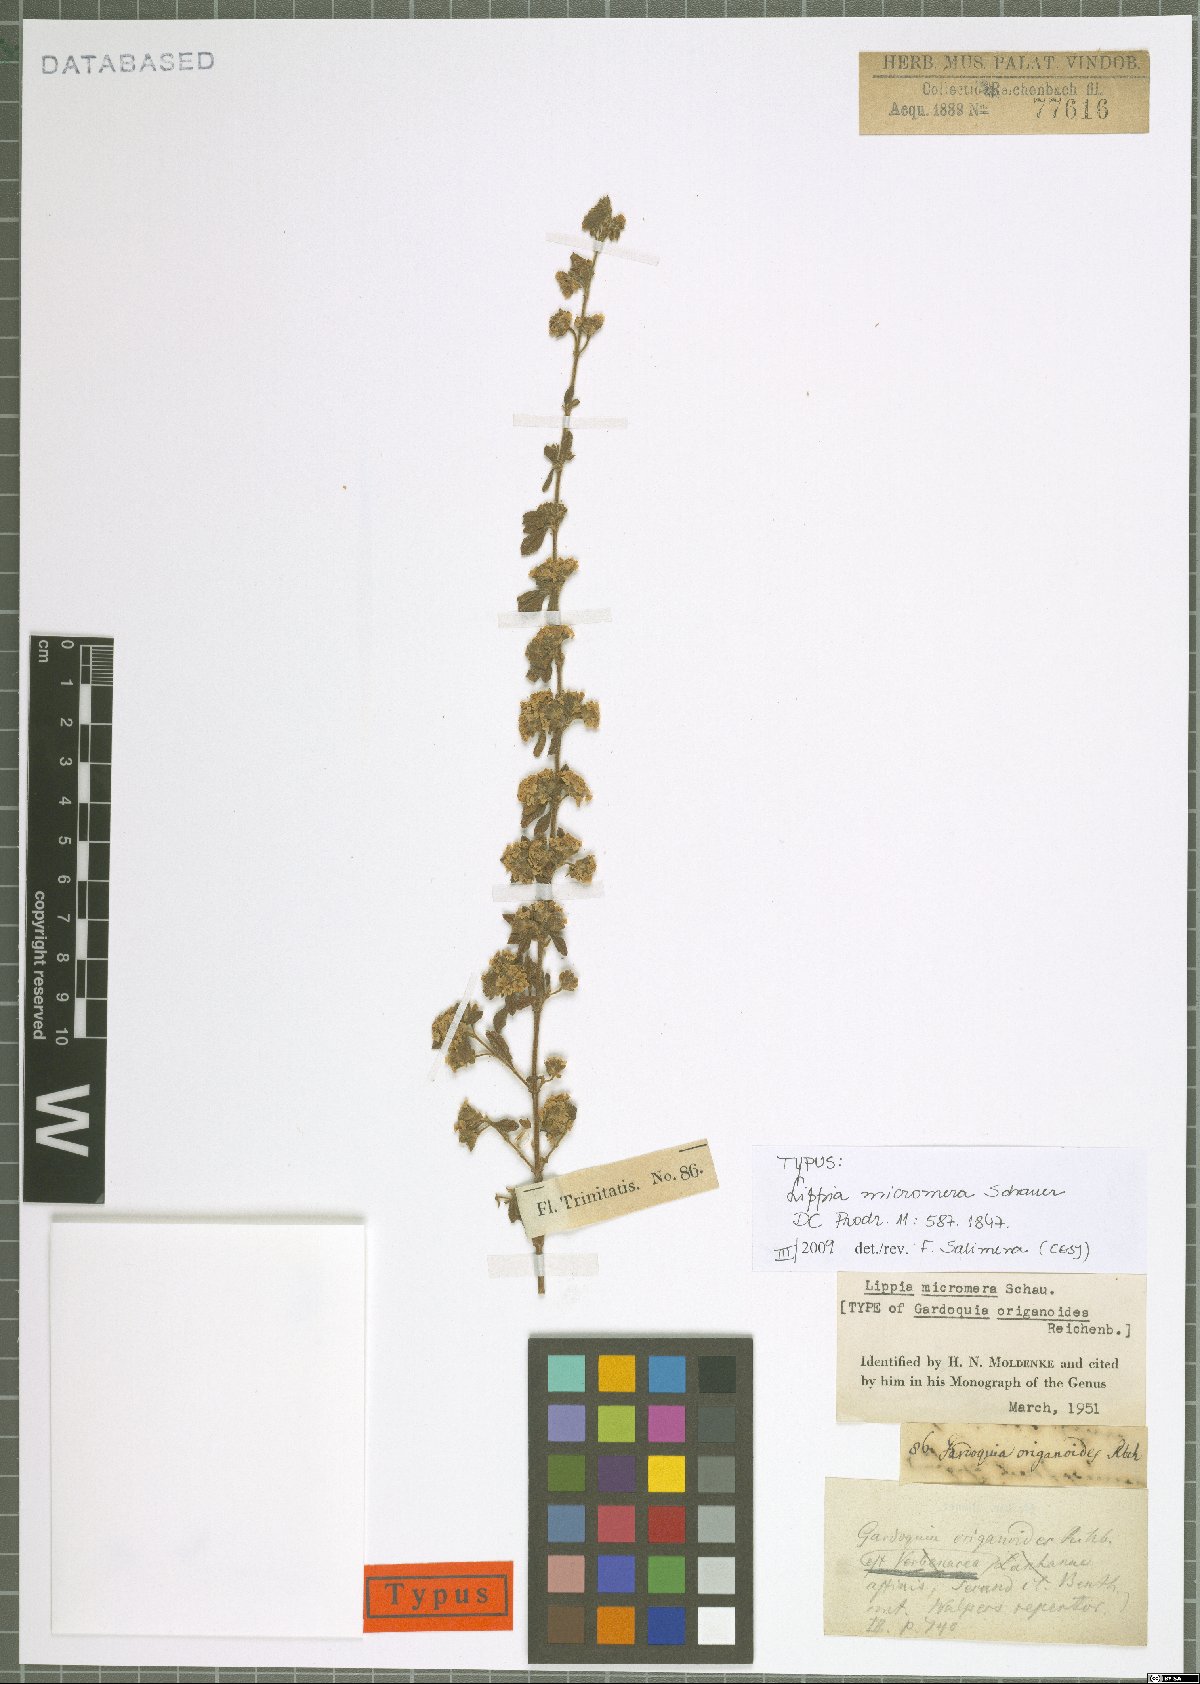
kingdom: Plantae
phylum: Tracheophyta
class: Magnoliopsida
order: Lamiales
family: Verbenaceae
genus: Lippia
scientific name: Lippia micromera
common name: Puerto rican oregano
